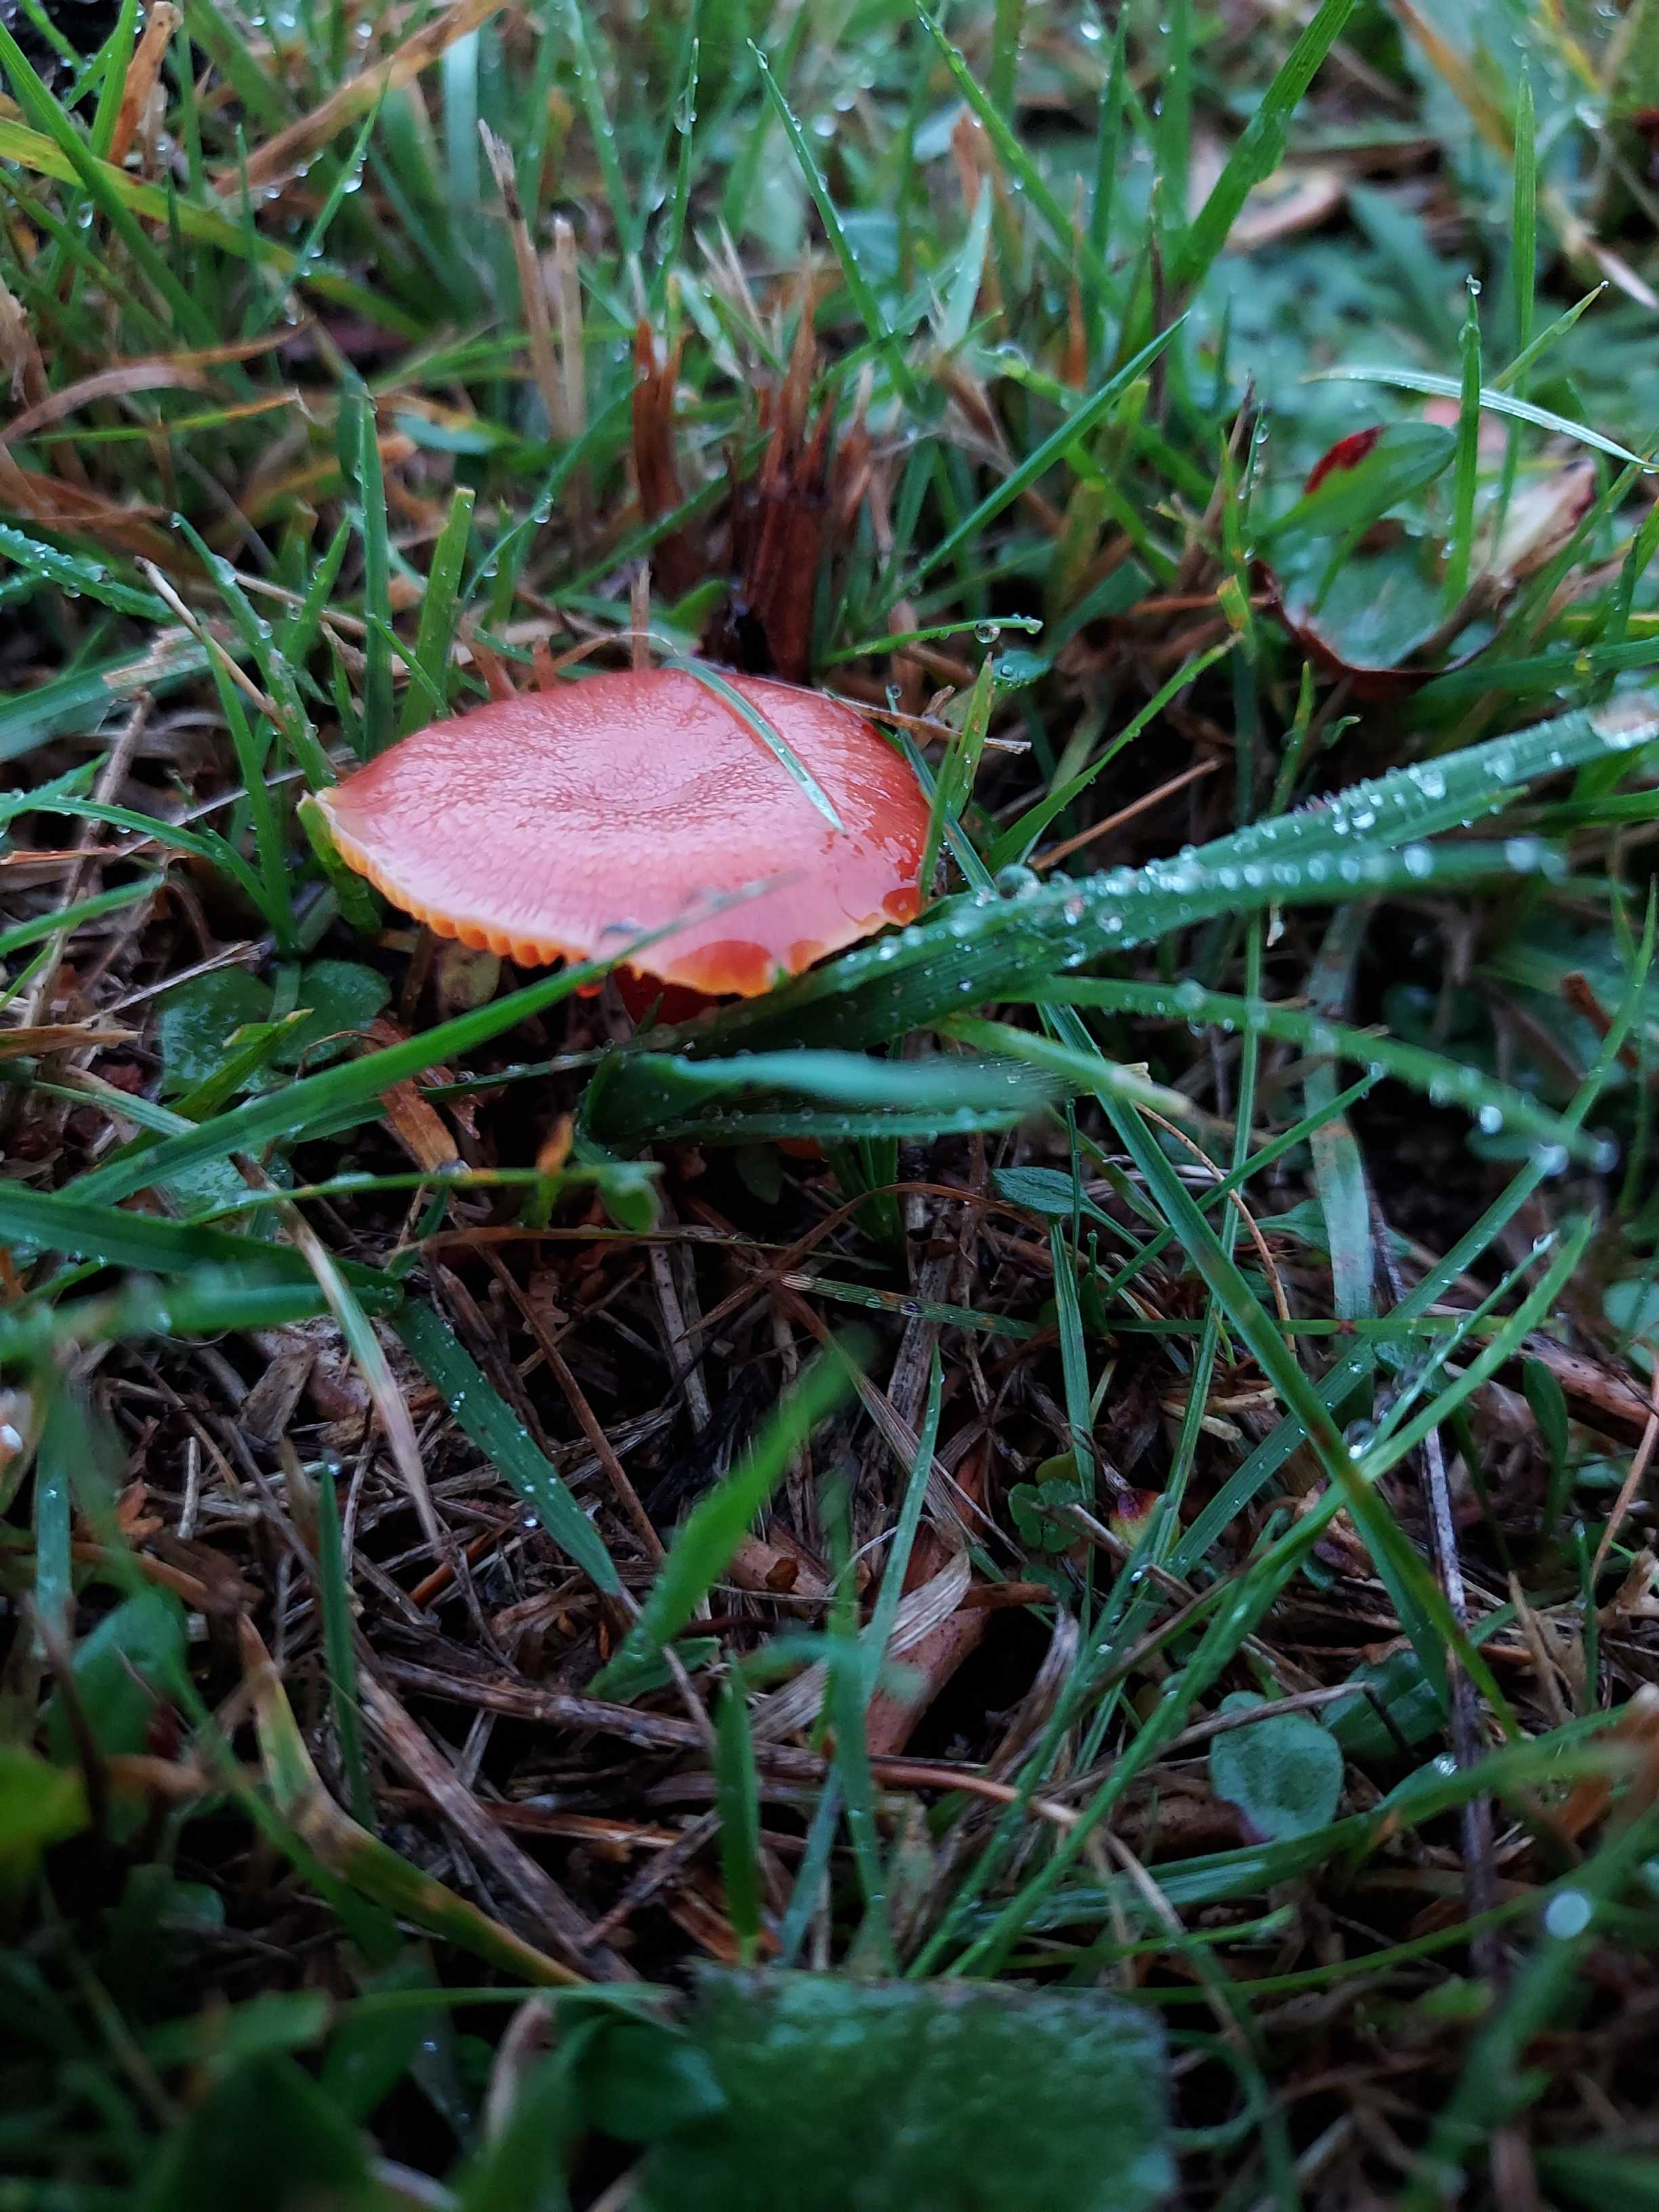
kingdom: Fungi
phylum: Basidiomycota
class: Agaricomycetes
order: Agaricales
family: Hygrophoraceae
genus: Hygrocybe
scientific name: Hygrocybe miniata
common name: mønje-vokshat
